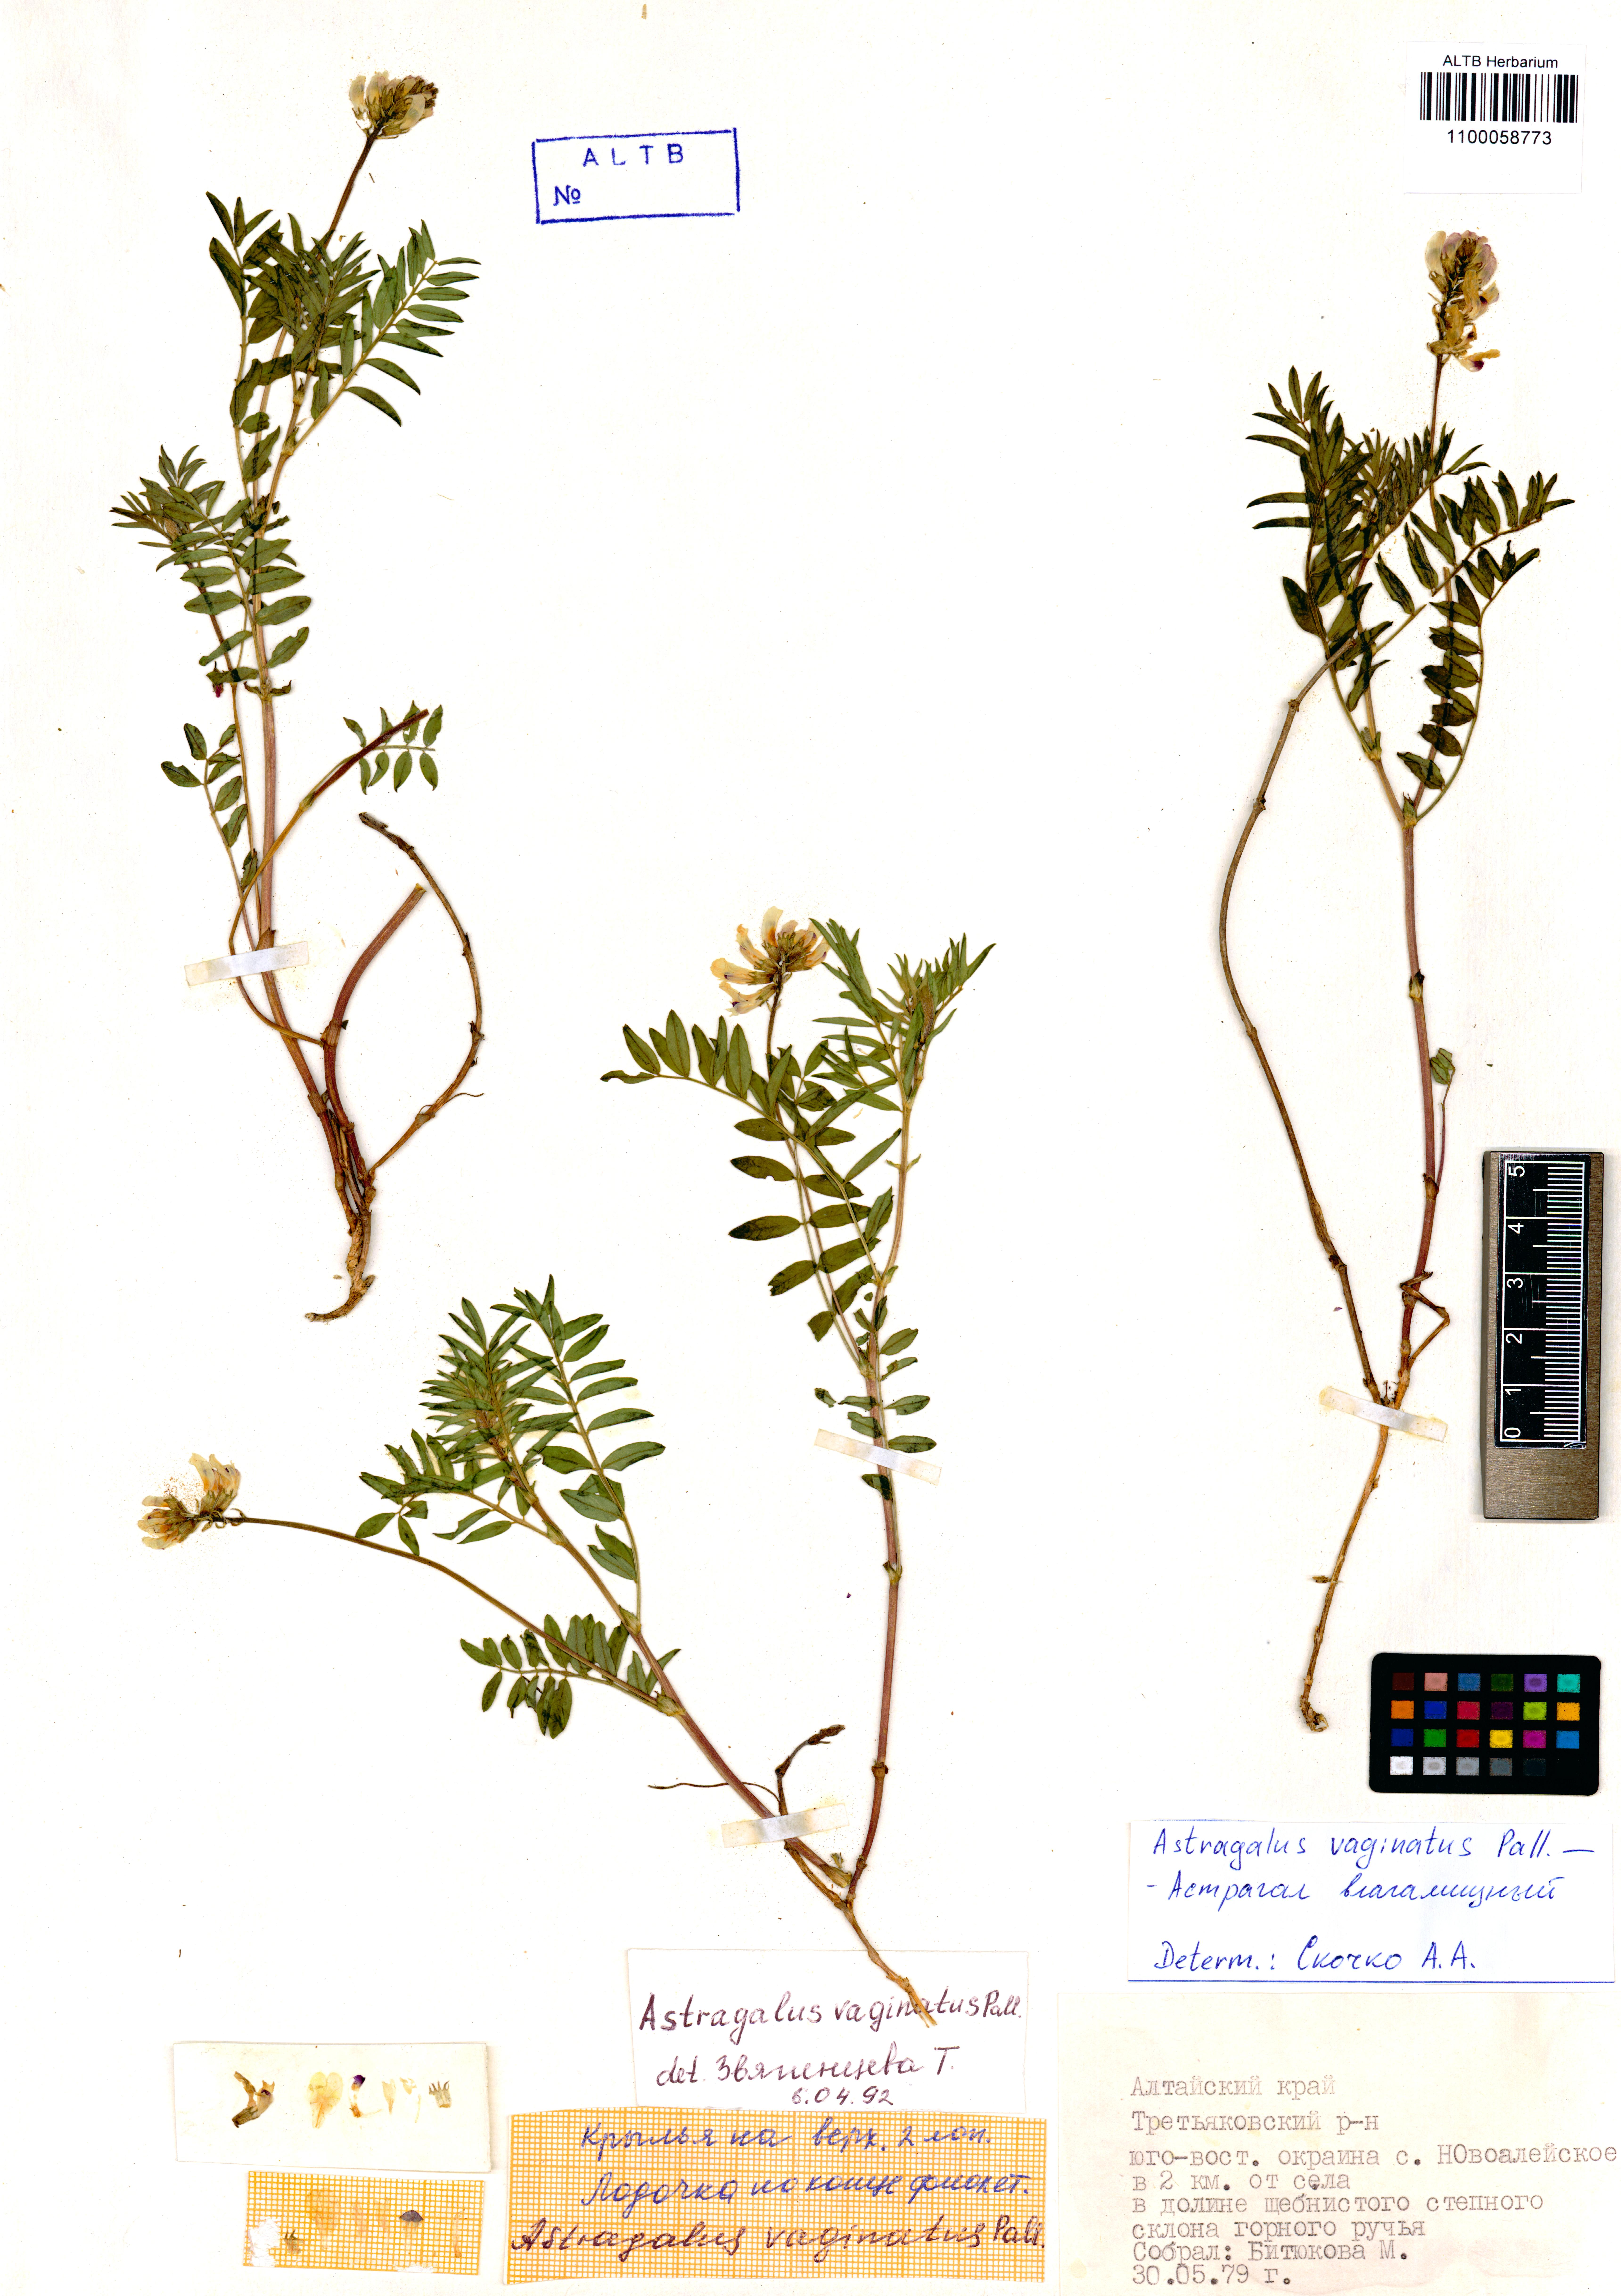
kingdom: Plantae
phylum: Tracheophyta
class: Magnoliopsida
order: Fabales
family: Fabaceae
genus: Astragalus
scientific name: Astragalus vaginatus
